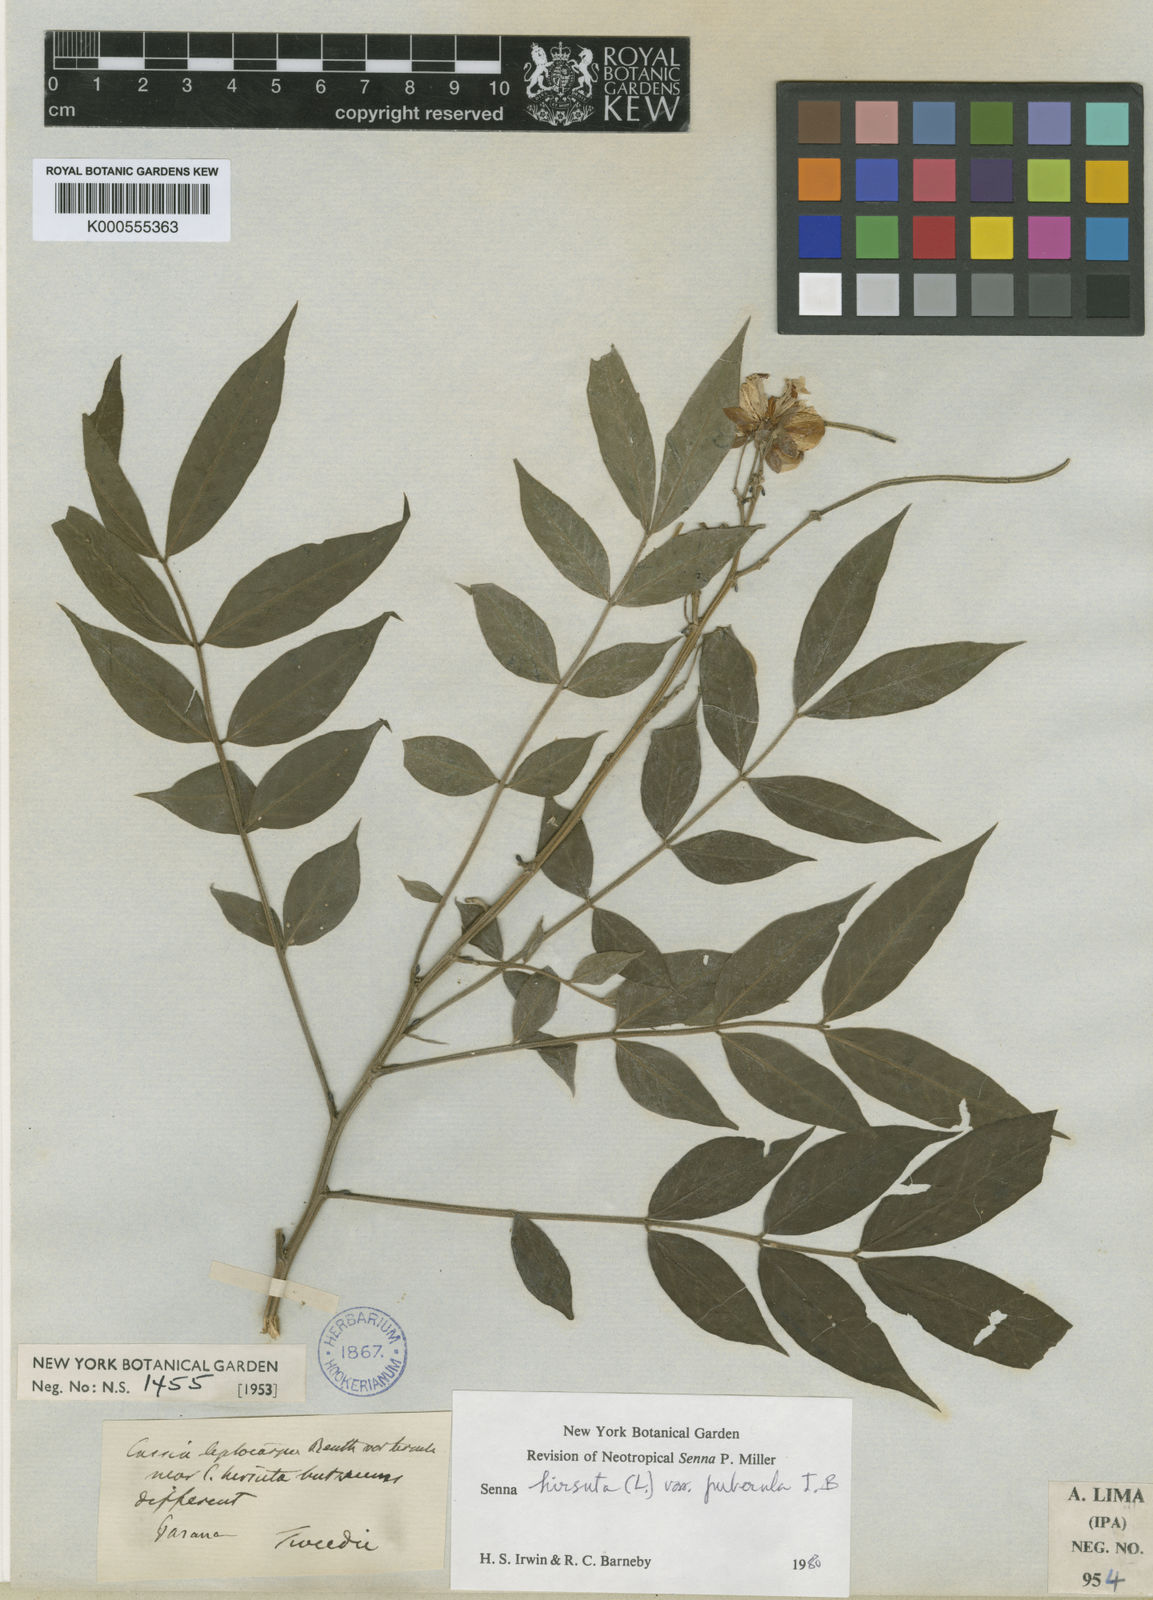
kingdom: Plantae
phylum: Tracheophyta
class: Magnoliopsida
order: Fabales
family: Fabaceae
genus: Senna
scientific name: Senna hirsuta
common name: Woolly senna
